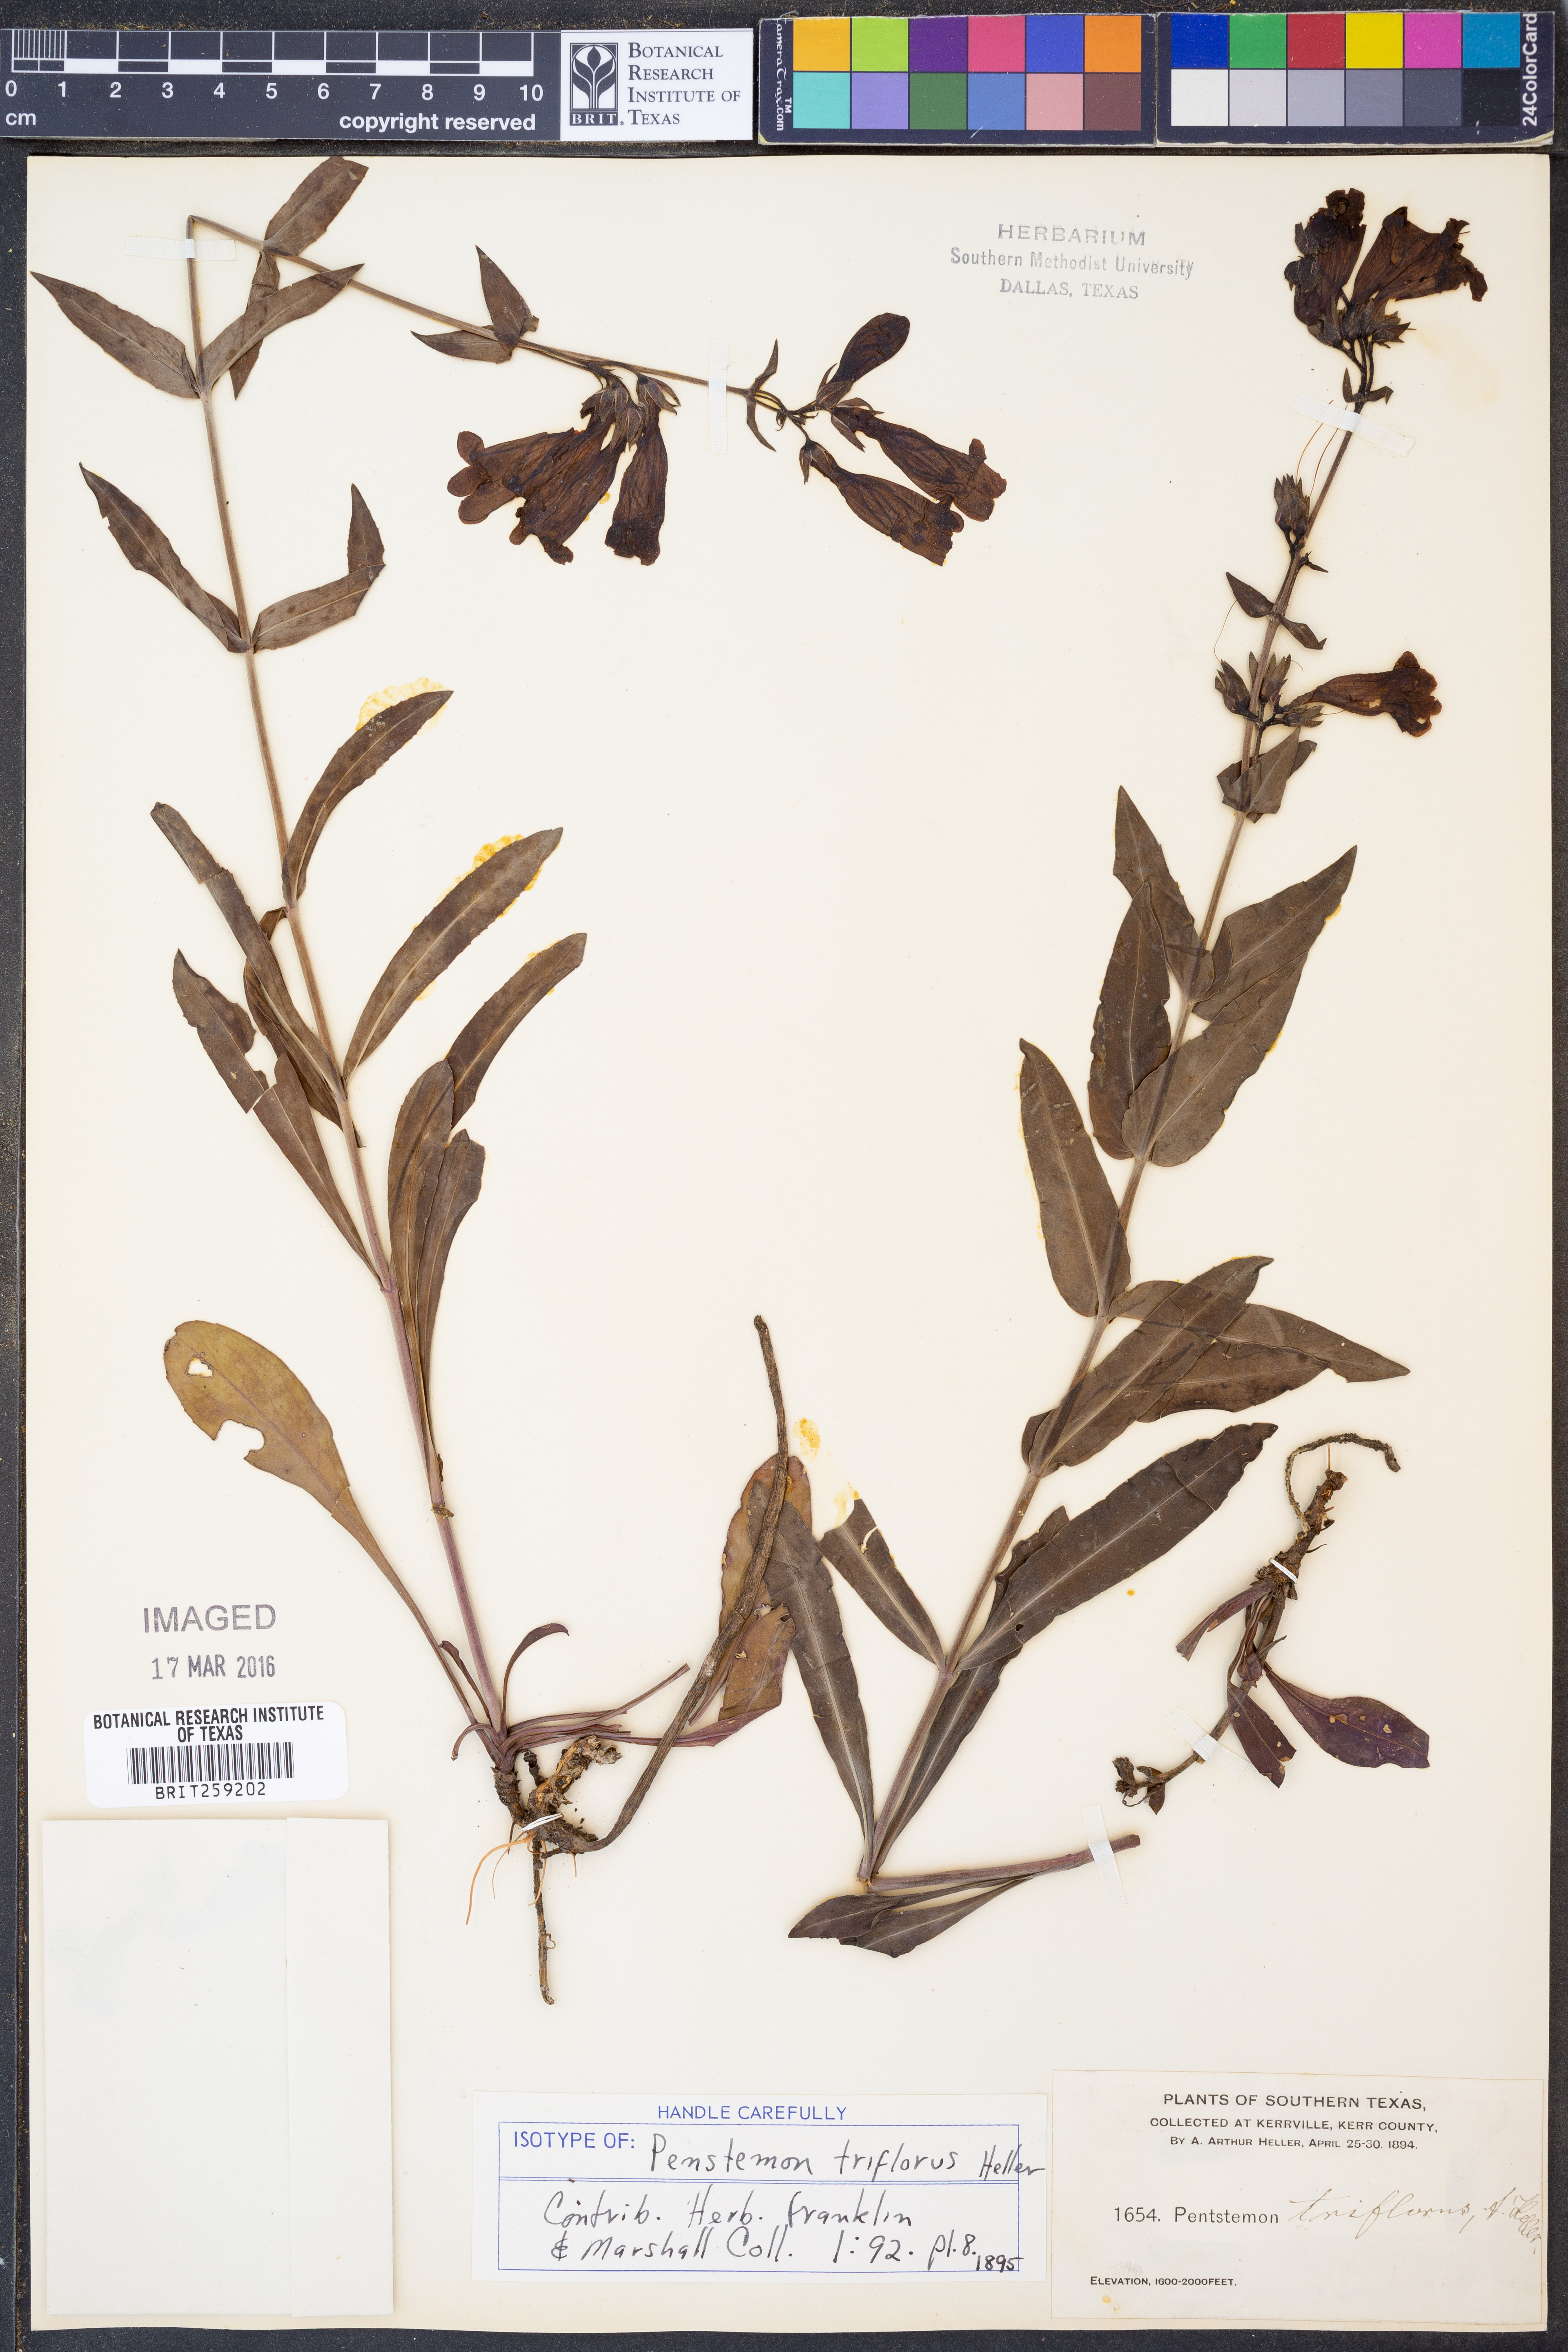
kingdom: Plantae
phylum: Tracheophyta
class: Magnoliopsida
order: Lamiales
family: Plantaginaceae
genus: Penstemon
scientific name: Penstemon triflorus
